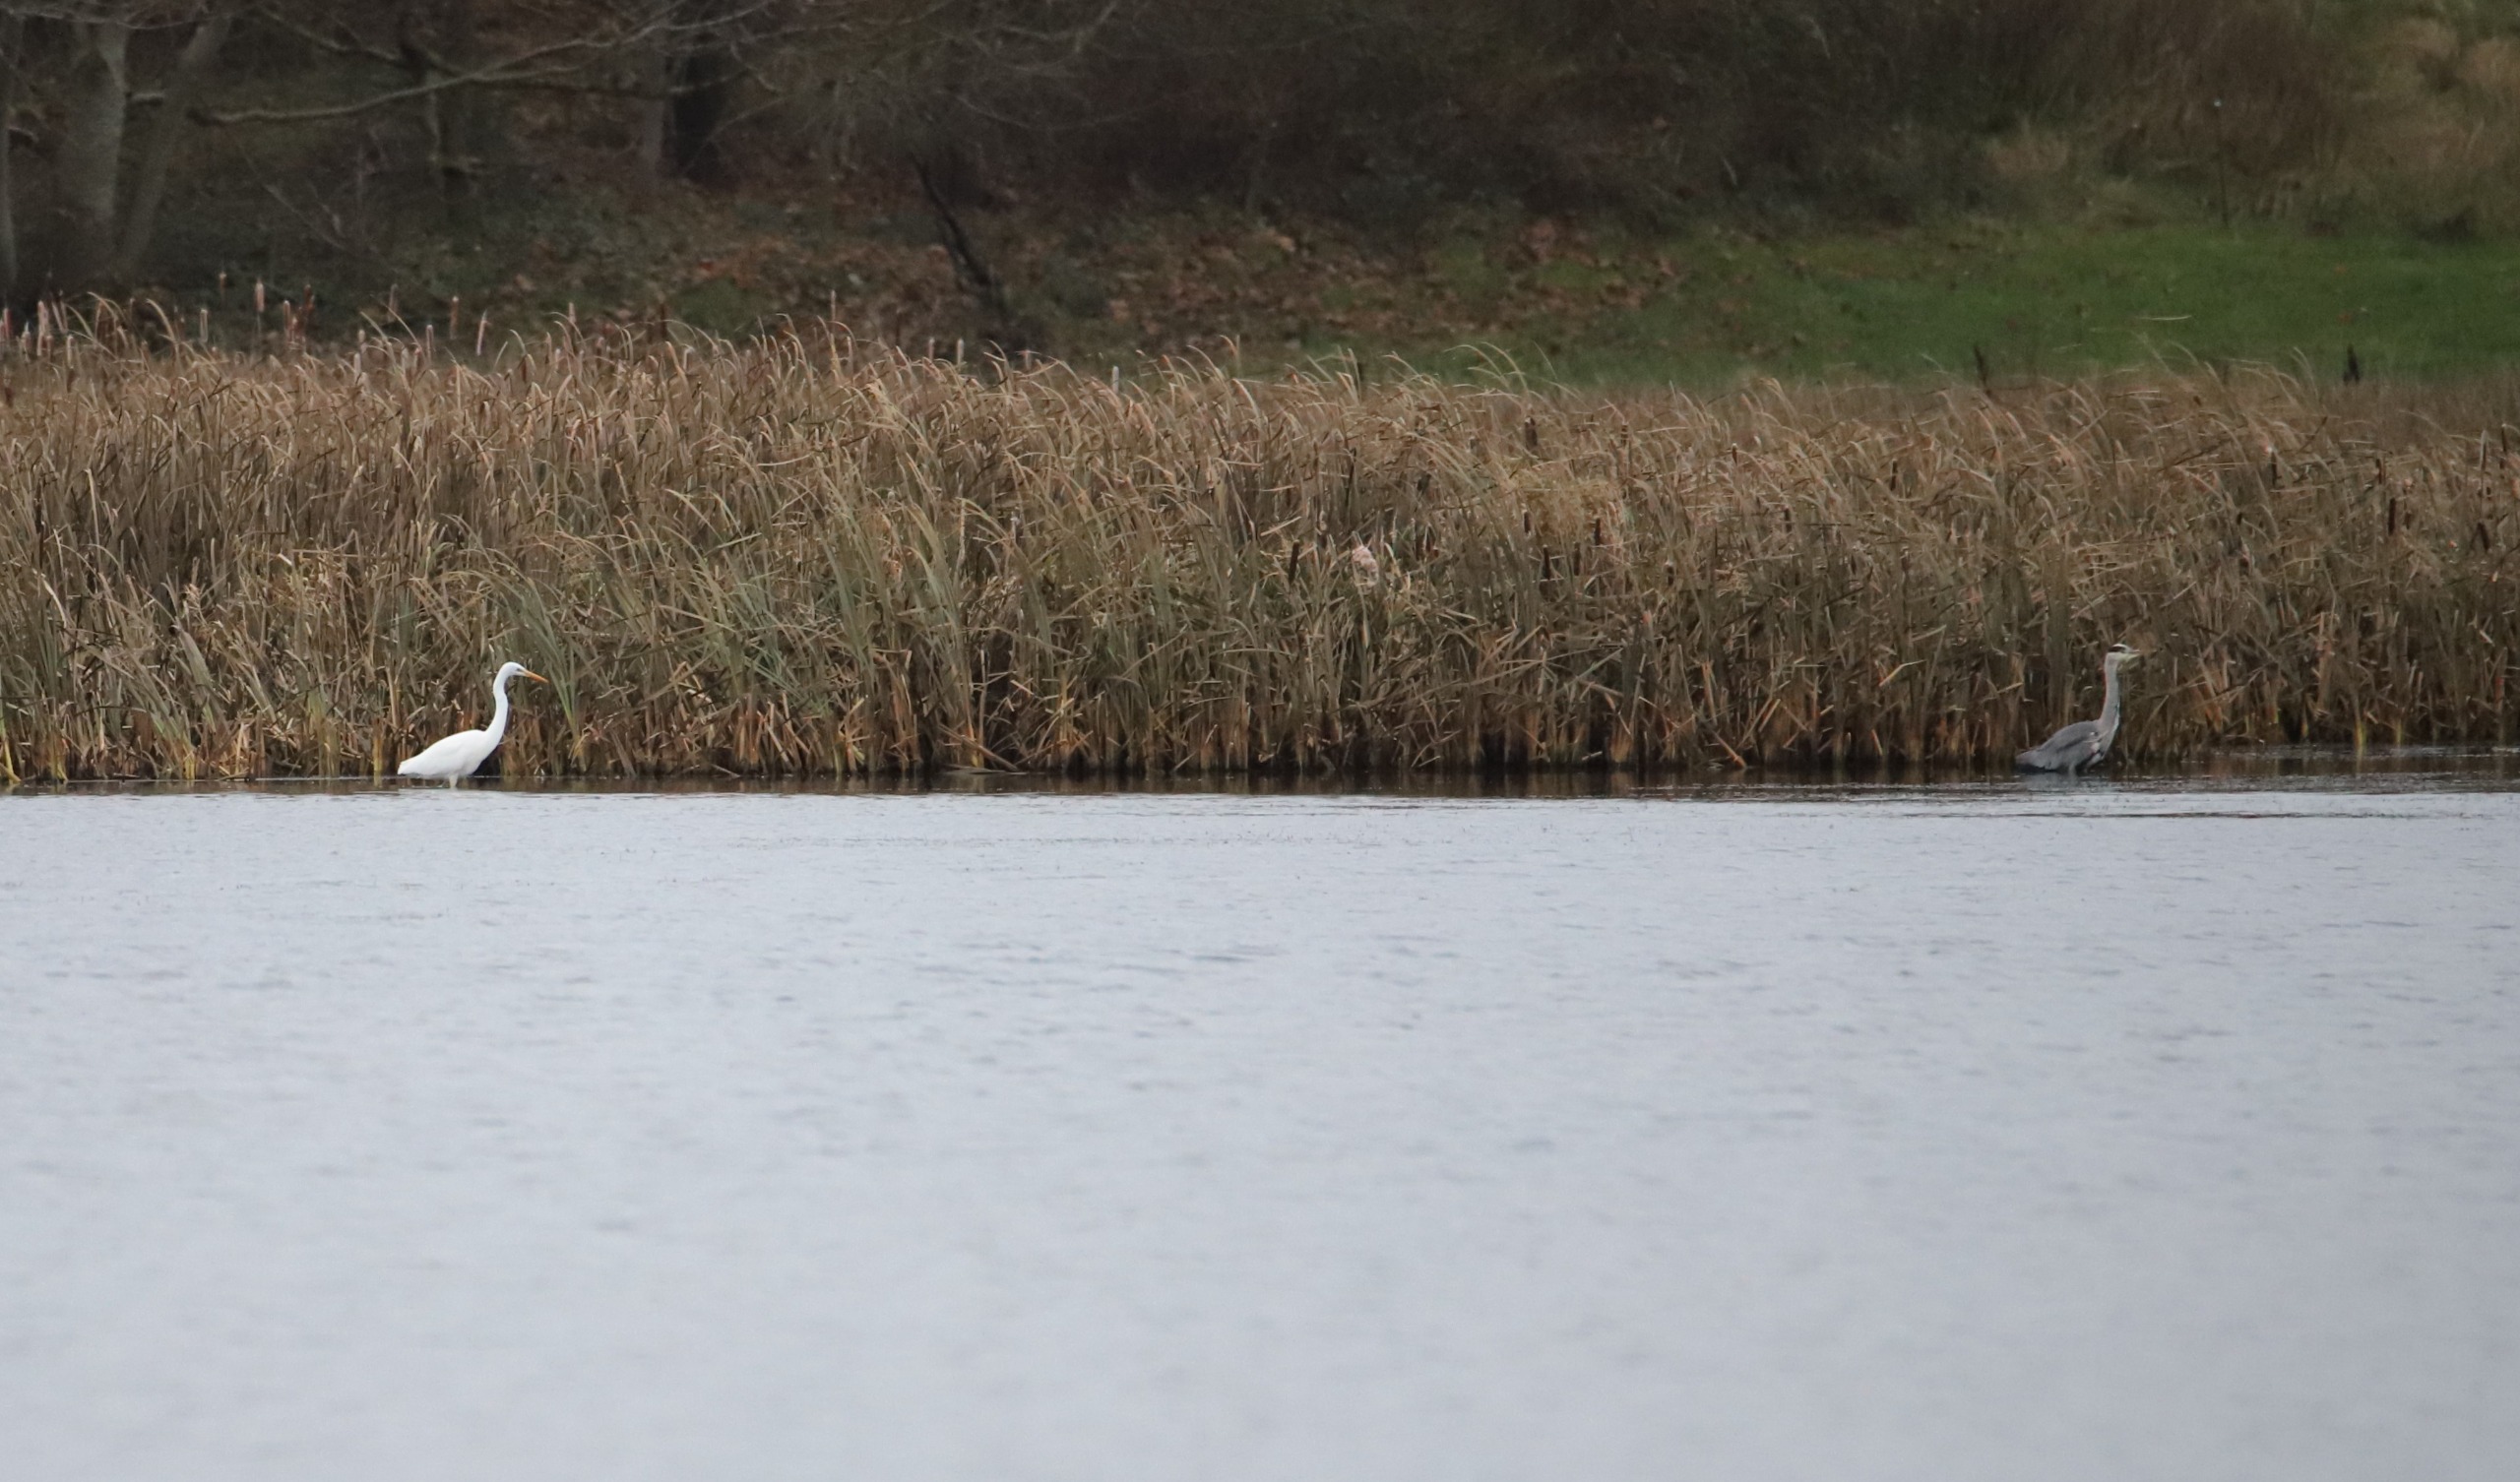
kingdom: Animalia
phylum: Chordata
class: Aves
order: Pelecaniformes
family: Ardeidae
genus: Ardea
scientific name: Ardea alba
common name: Sølvhejre
